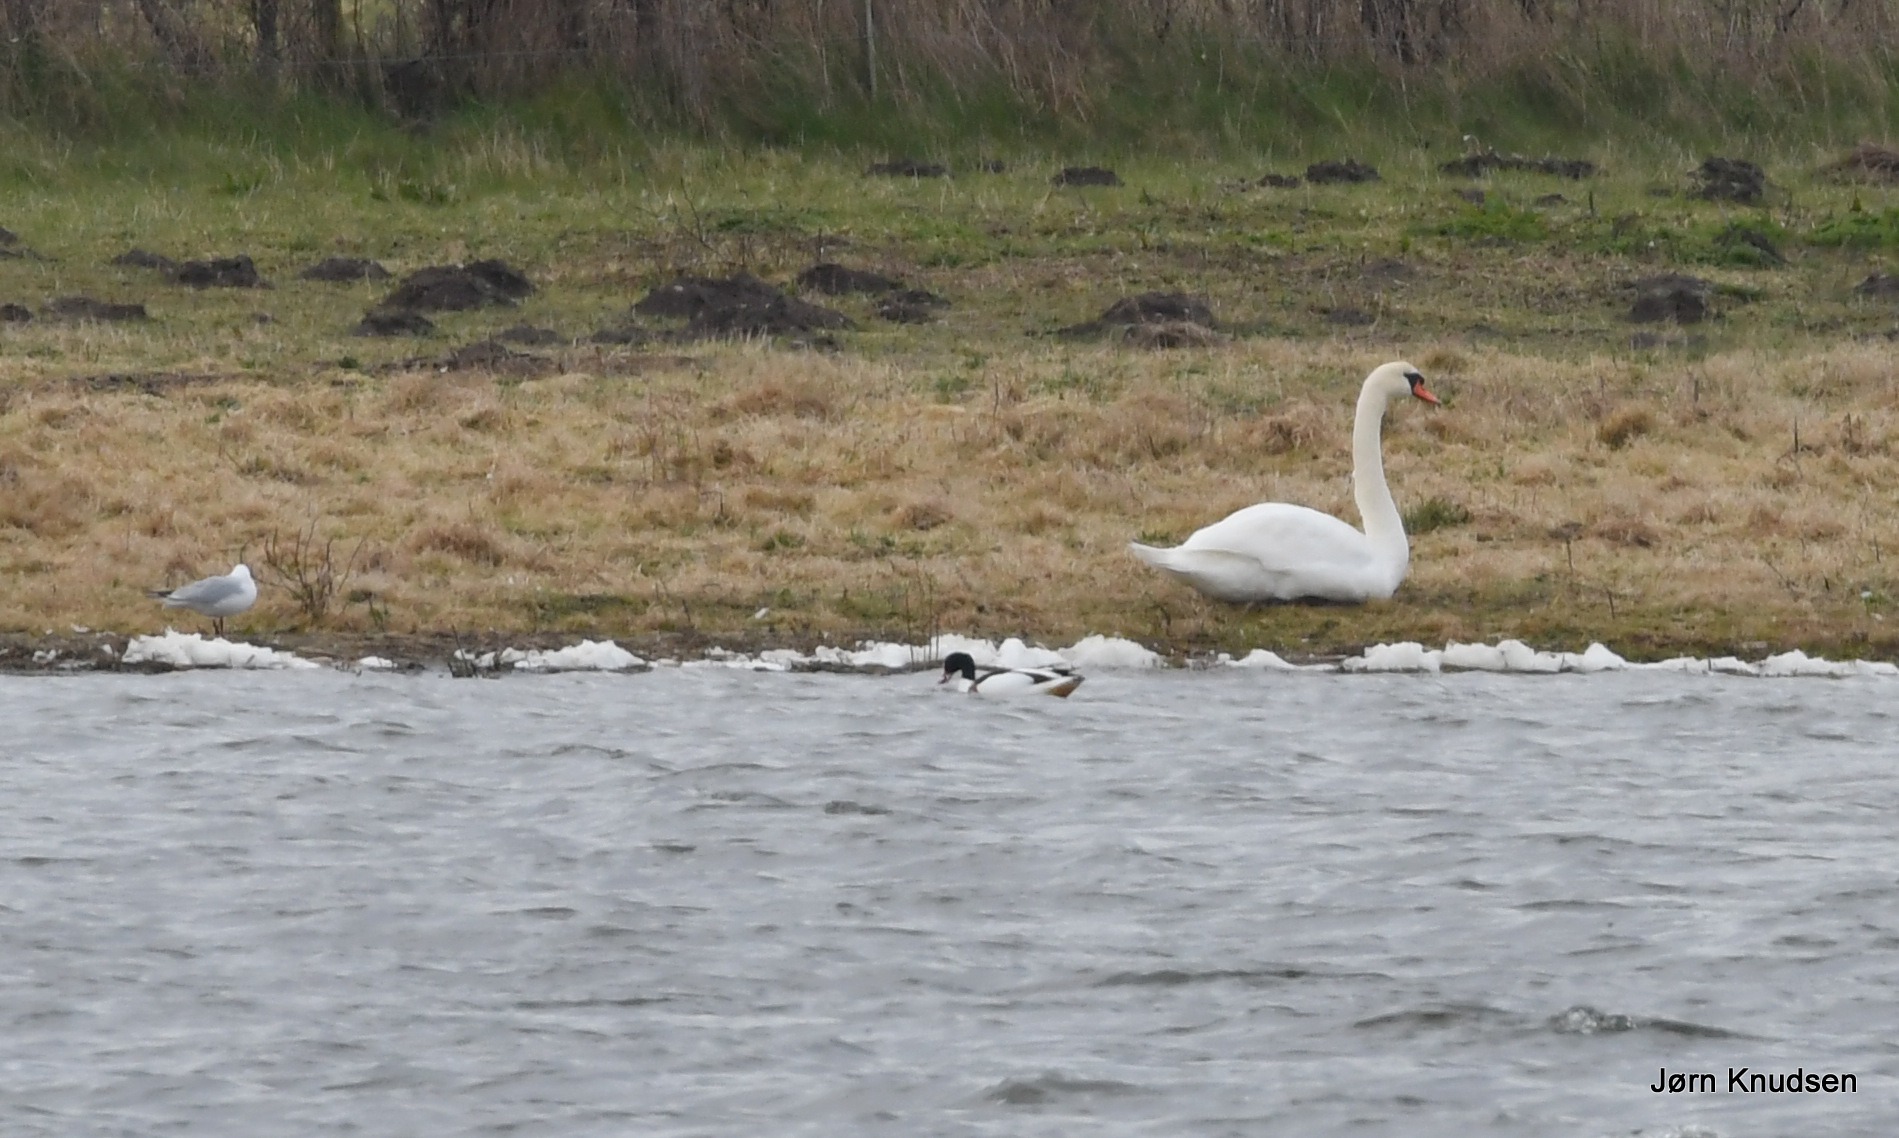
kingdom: Animalia
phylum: Chordata
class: Aves
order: Anseriformes
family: Anatidae
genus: Tadorna
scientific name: Tadorna tadorna
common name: Gravand
